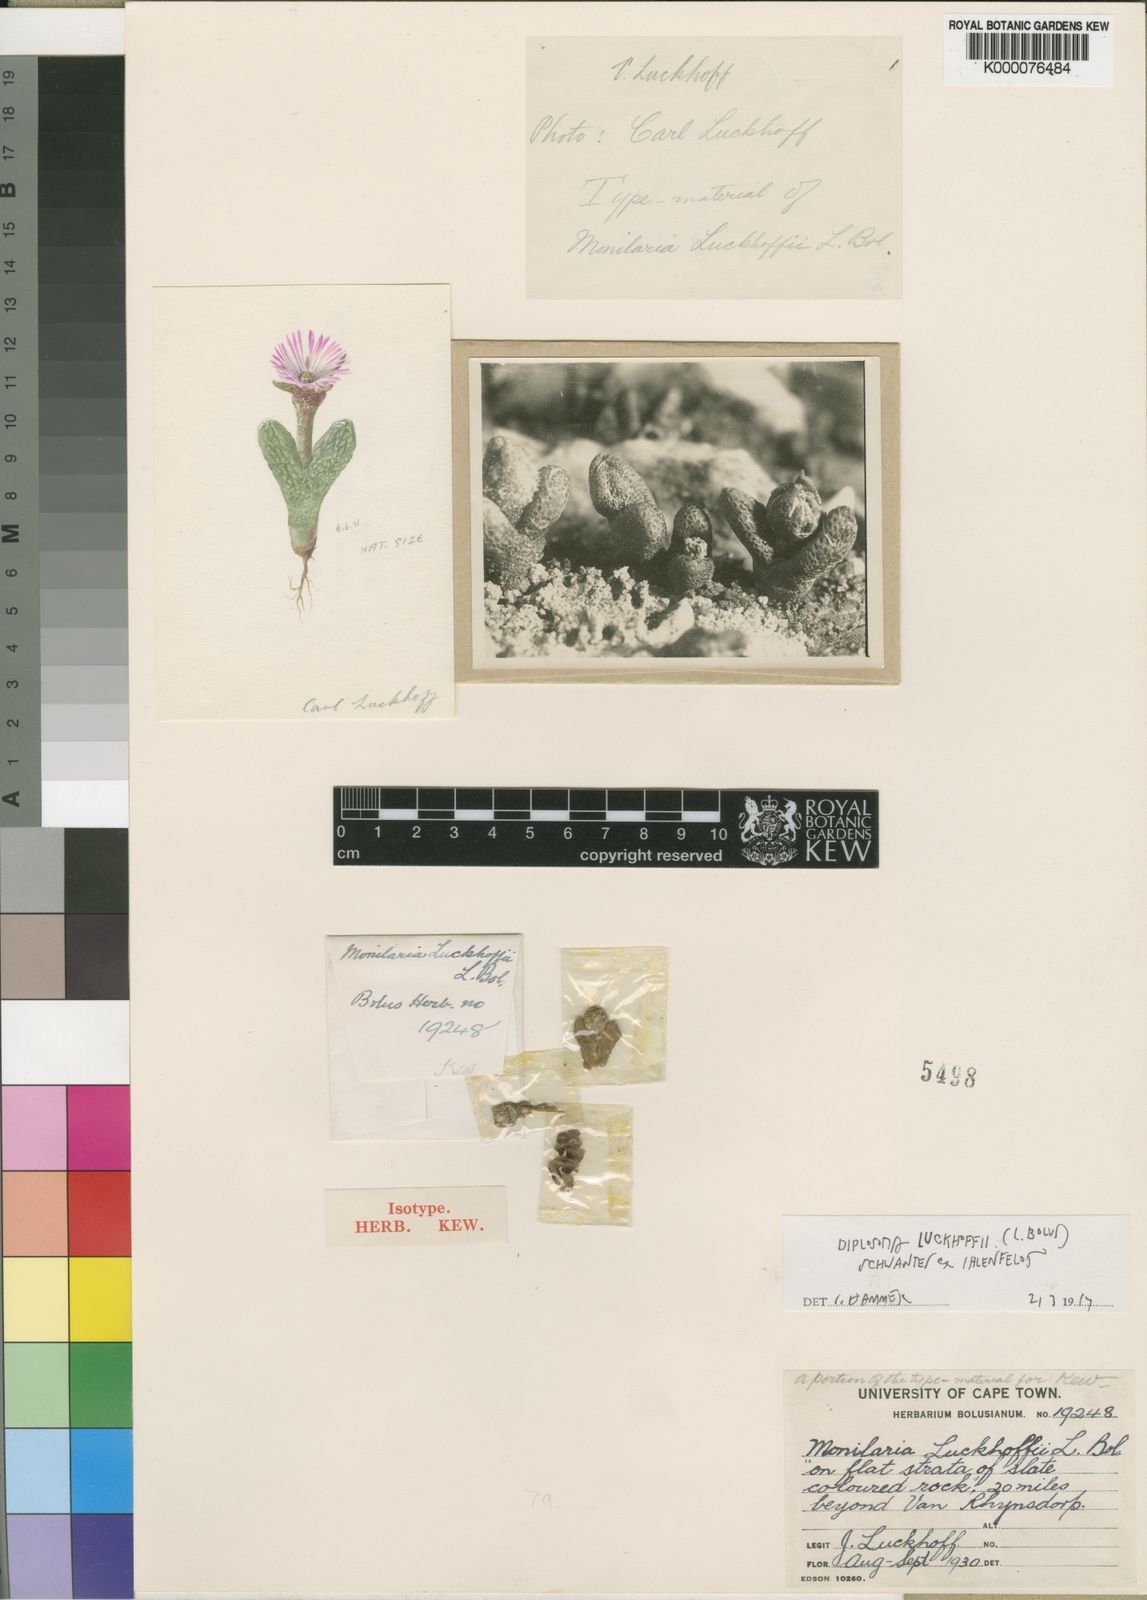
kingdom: Plantae
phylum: Tracheophyta
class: Magnoliopsida
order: Caryophyllales
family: Aizoaceae
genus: Diplosoma
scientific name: Diplosoma luckhoffii
